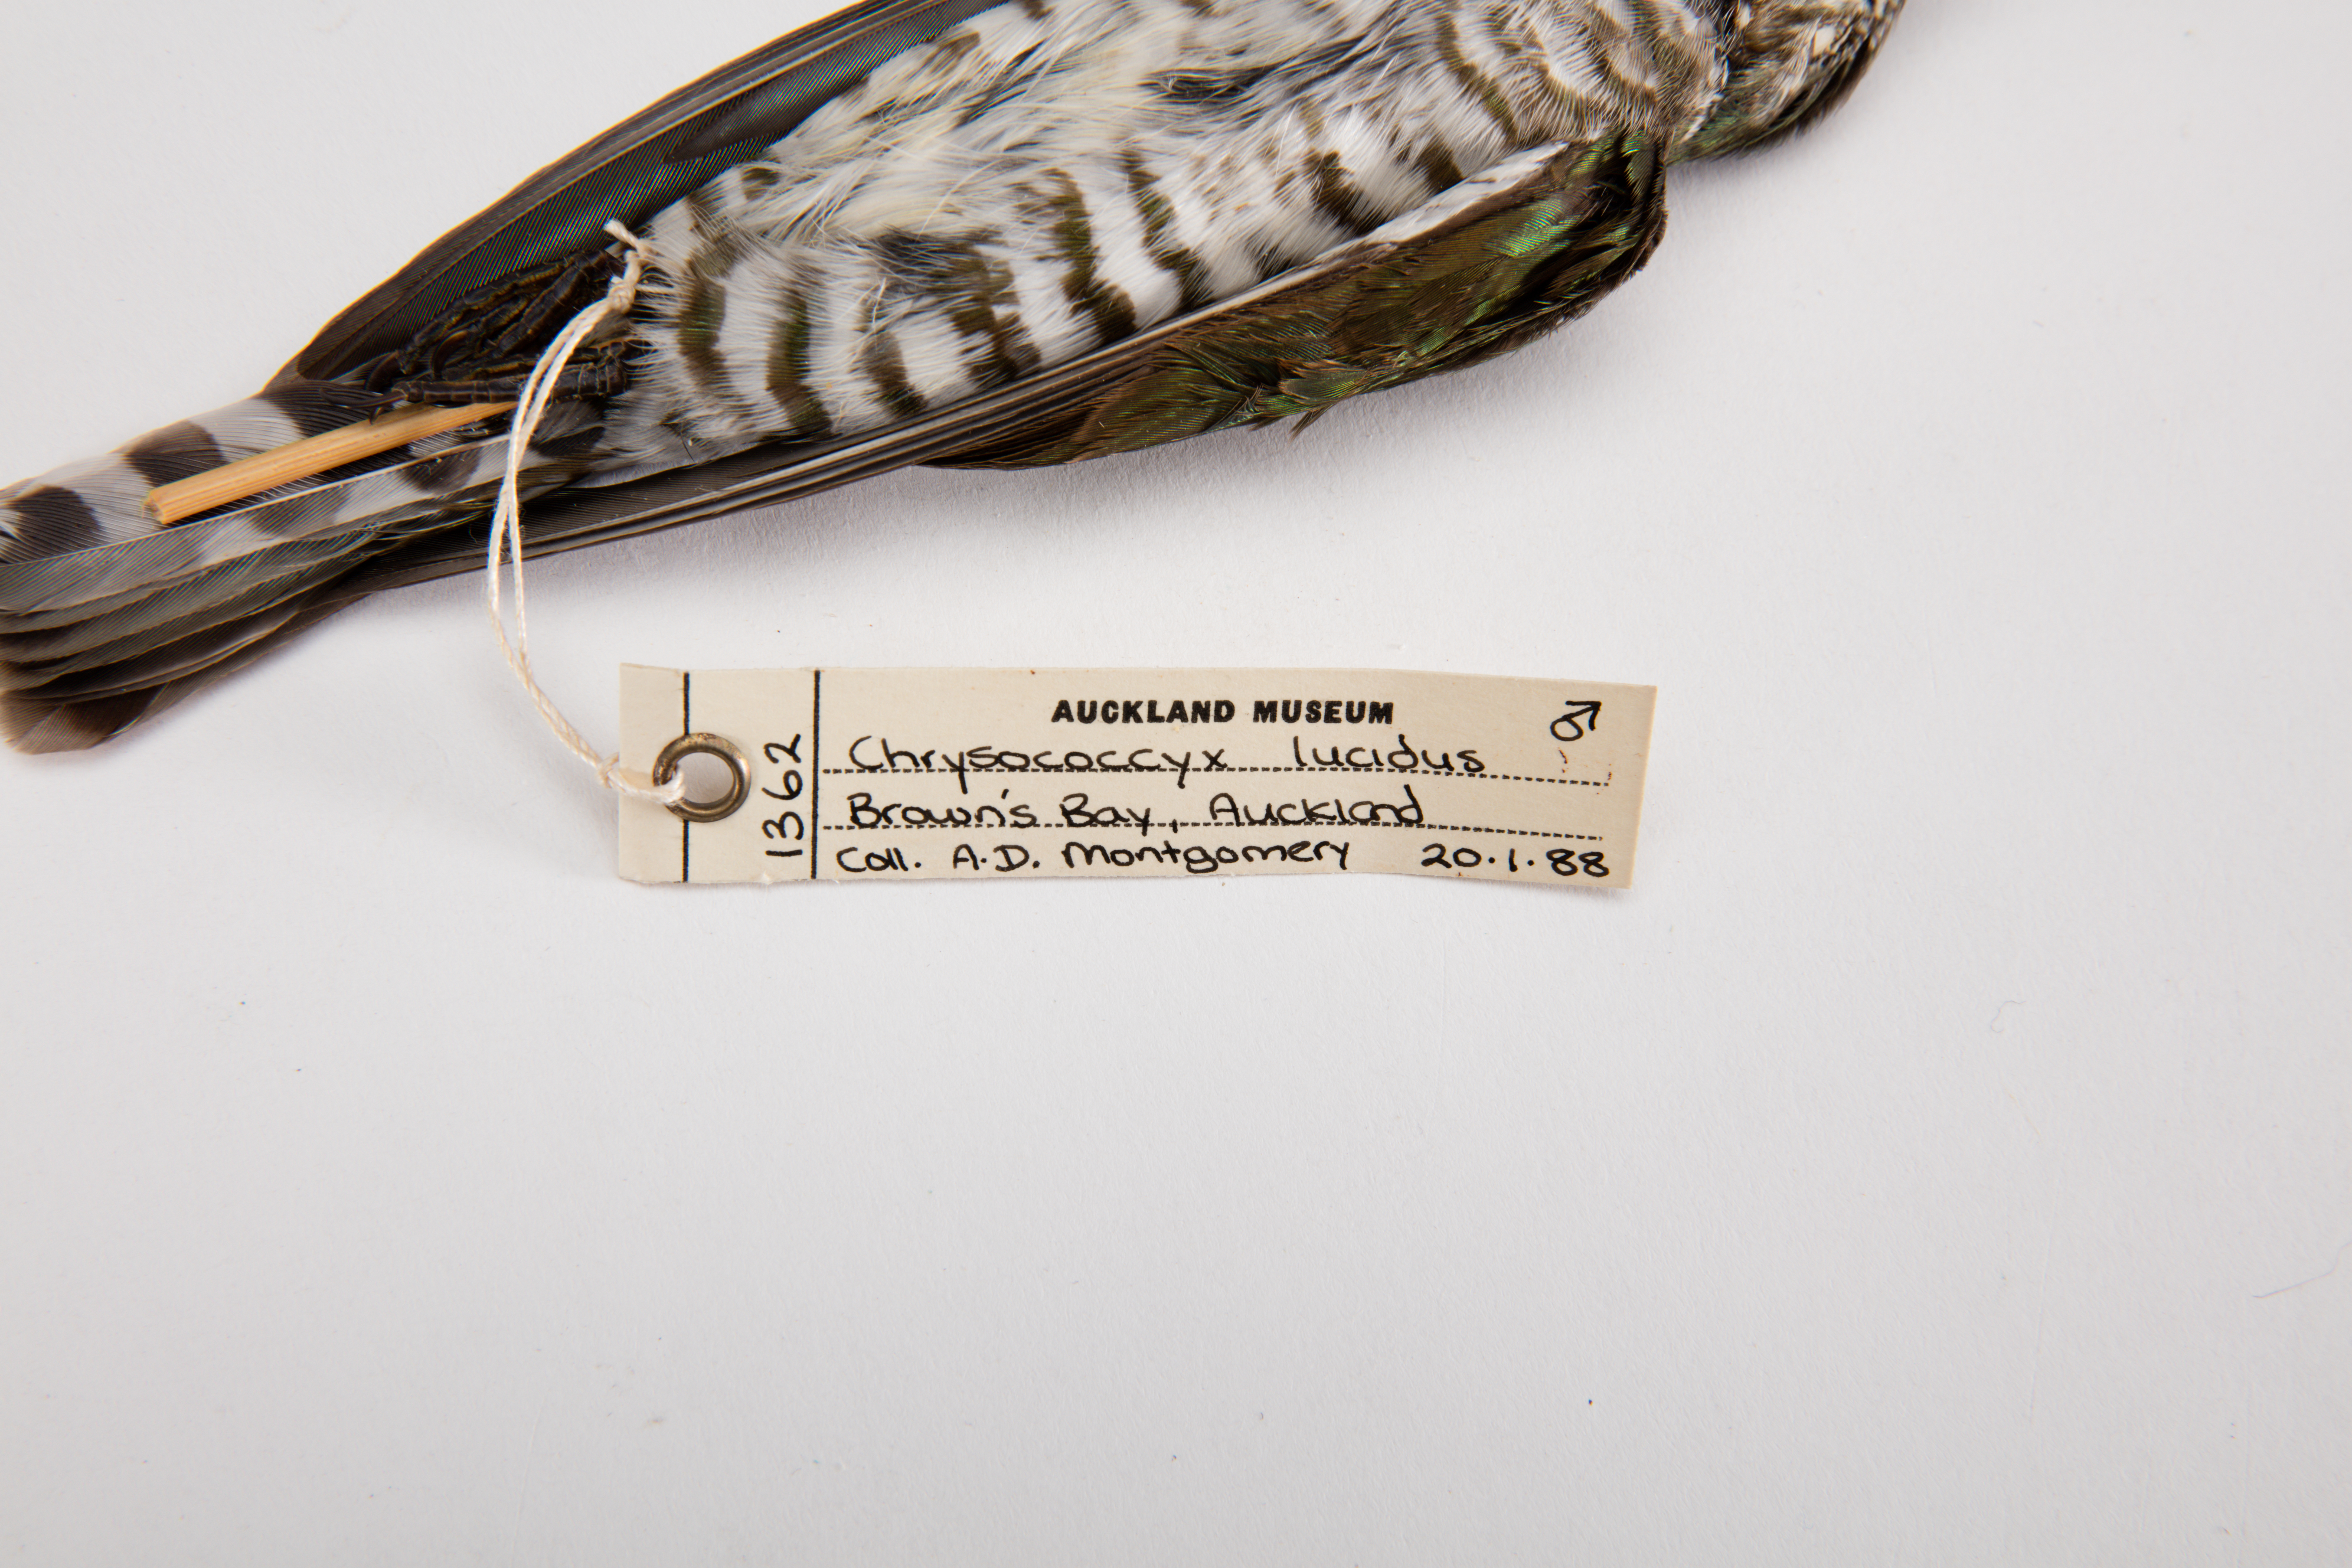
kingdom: Animalia
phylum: Chordata
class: Aves
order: Cuculiformes
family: Cuculidae
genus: Chrysococcyx
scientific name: Chrysococcyx lucidus
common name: Shining bronze cuckoo
